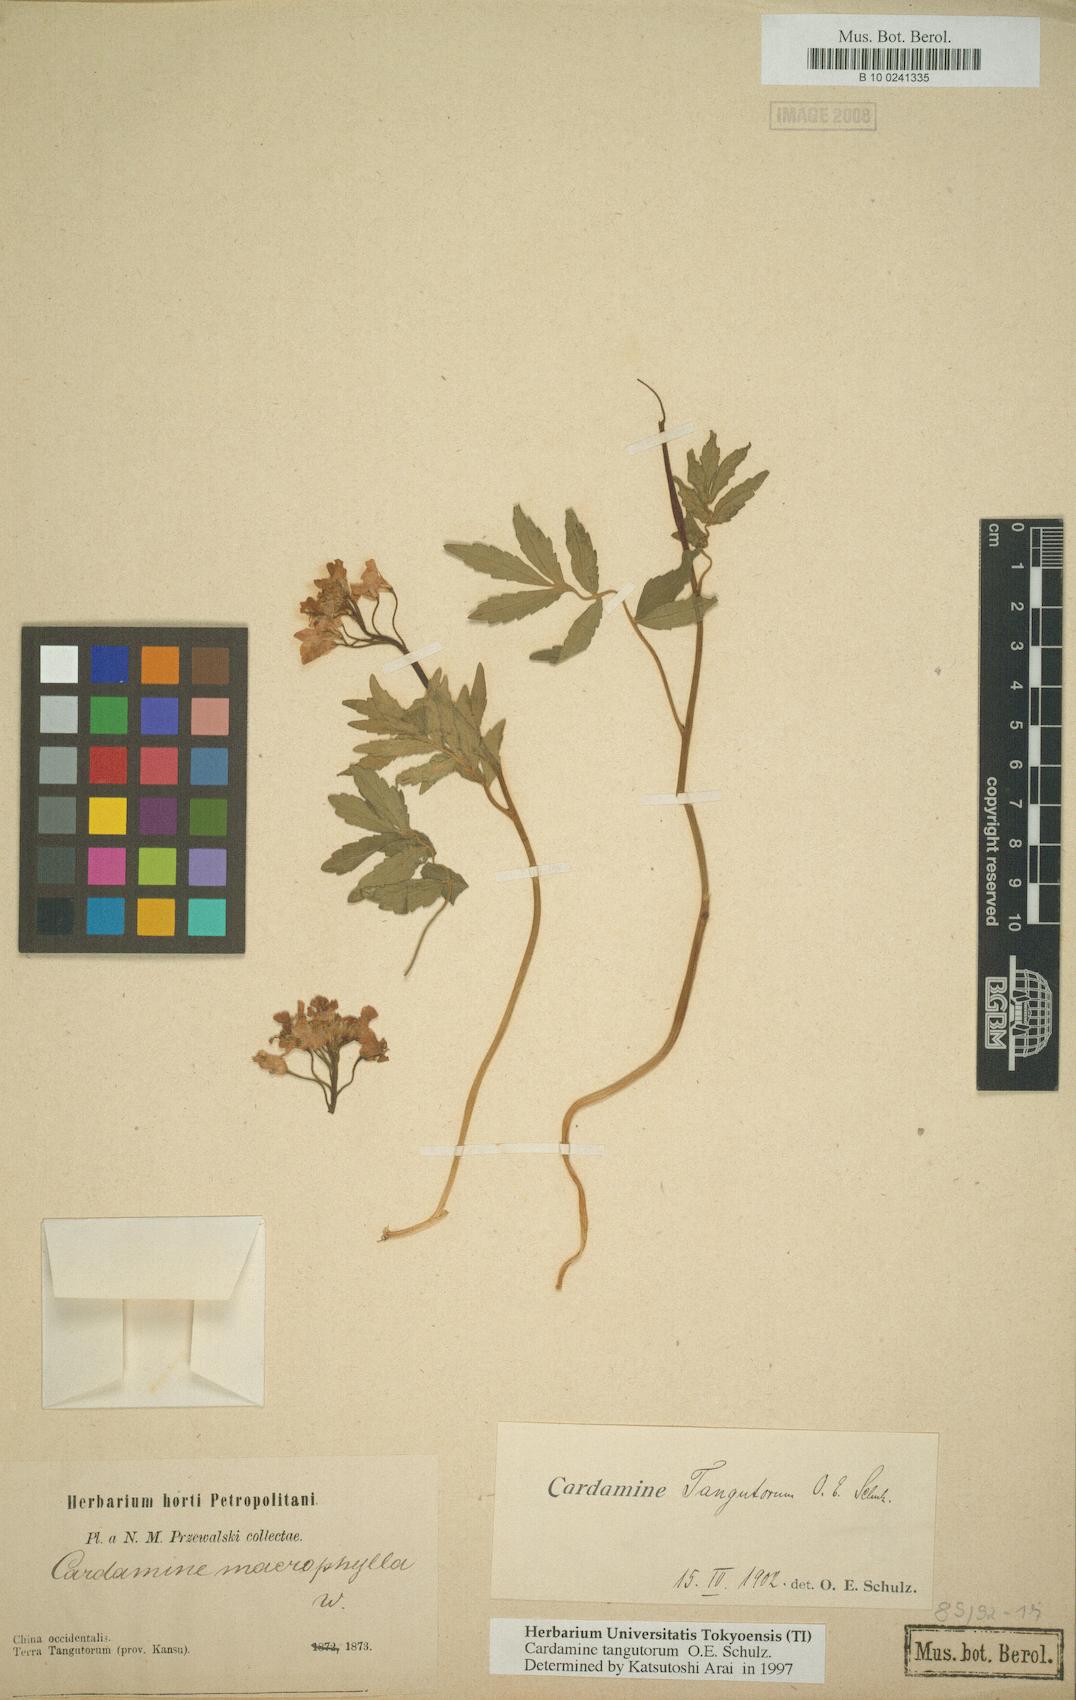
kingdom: Plantae
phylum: Tracheophyta
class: Magnoliopsida
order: Brassicales
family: Brassicaceae
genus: Cardamine
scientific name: Cardamine tangutorum
